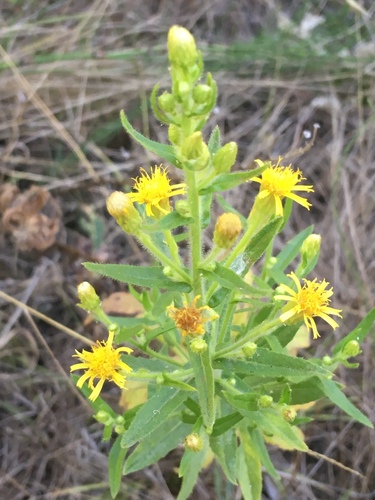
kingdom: Plantae
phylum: Tracheophyta
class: Magnoliopsida
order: Asterales
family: Asteraceae
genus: Dittrichia
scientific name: Dittrichia viscosa
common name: Woody fleabane
